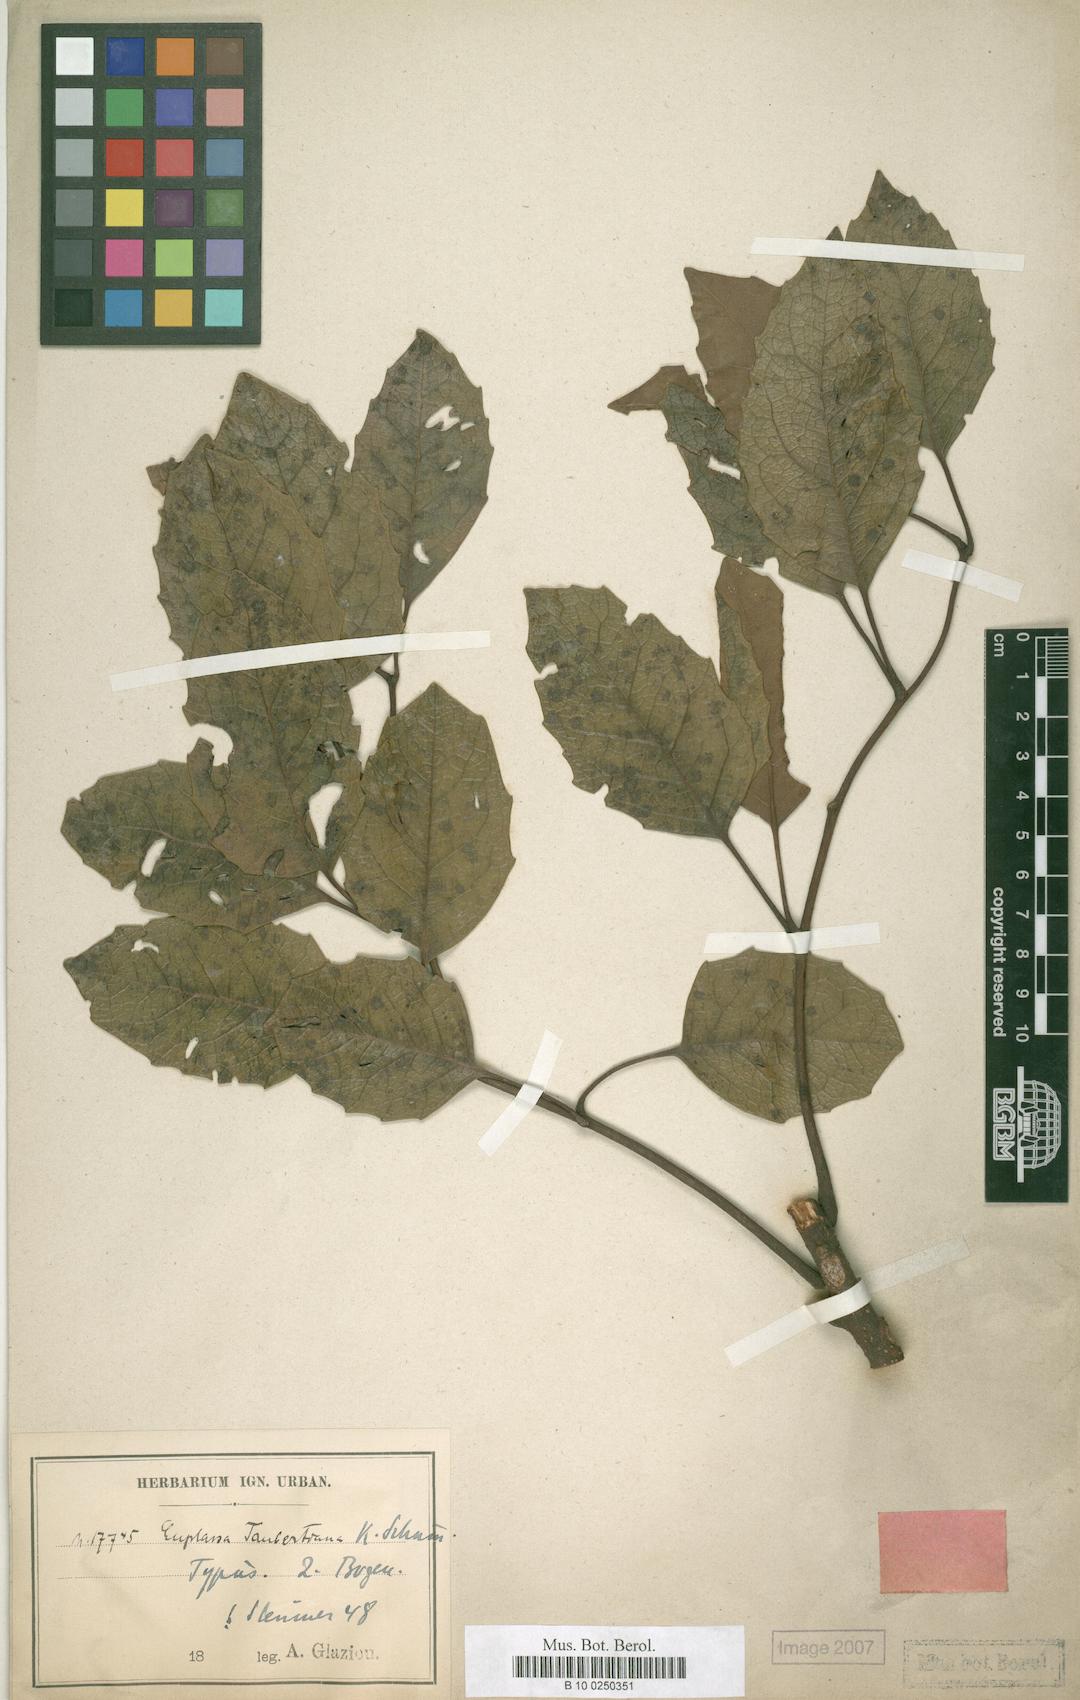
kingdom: Plantae
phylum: Tracheophyta
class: Magnoliopsida
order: Proteales
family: Proteaceae
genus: Euplassa
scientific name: Euplassa taubertiana
